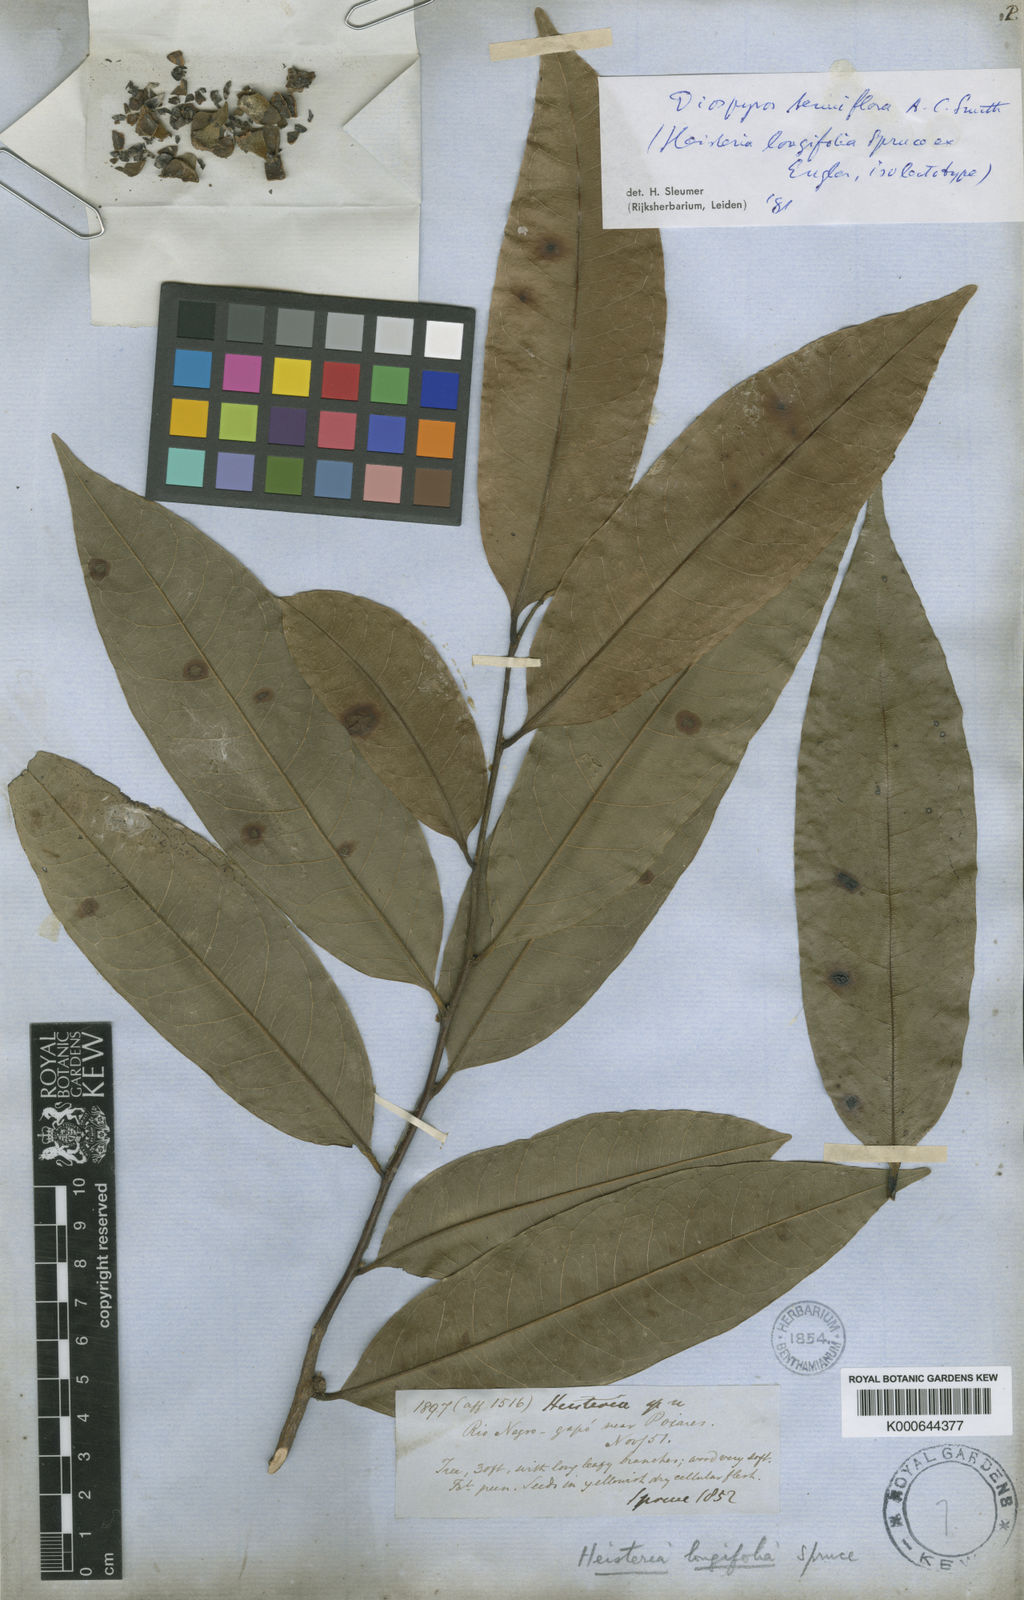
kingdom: Plantae
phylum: Tracheophyta
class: Magnoliopsida
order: Ericales
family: Ebenaceae
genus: Diospyros
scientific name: Diospyros tenuiflora
